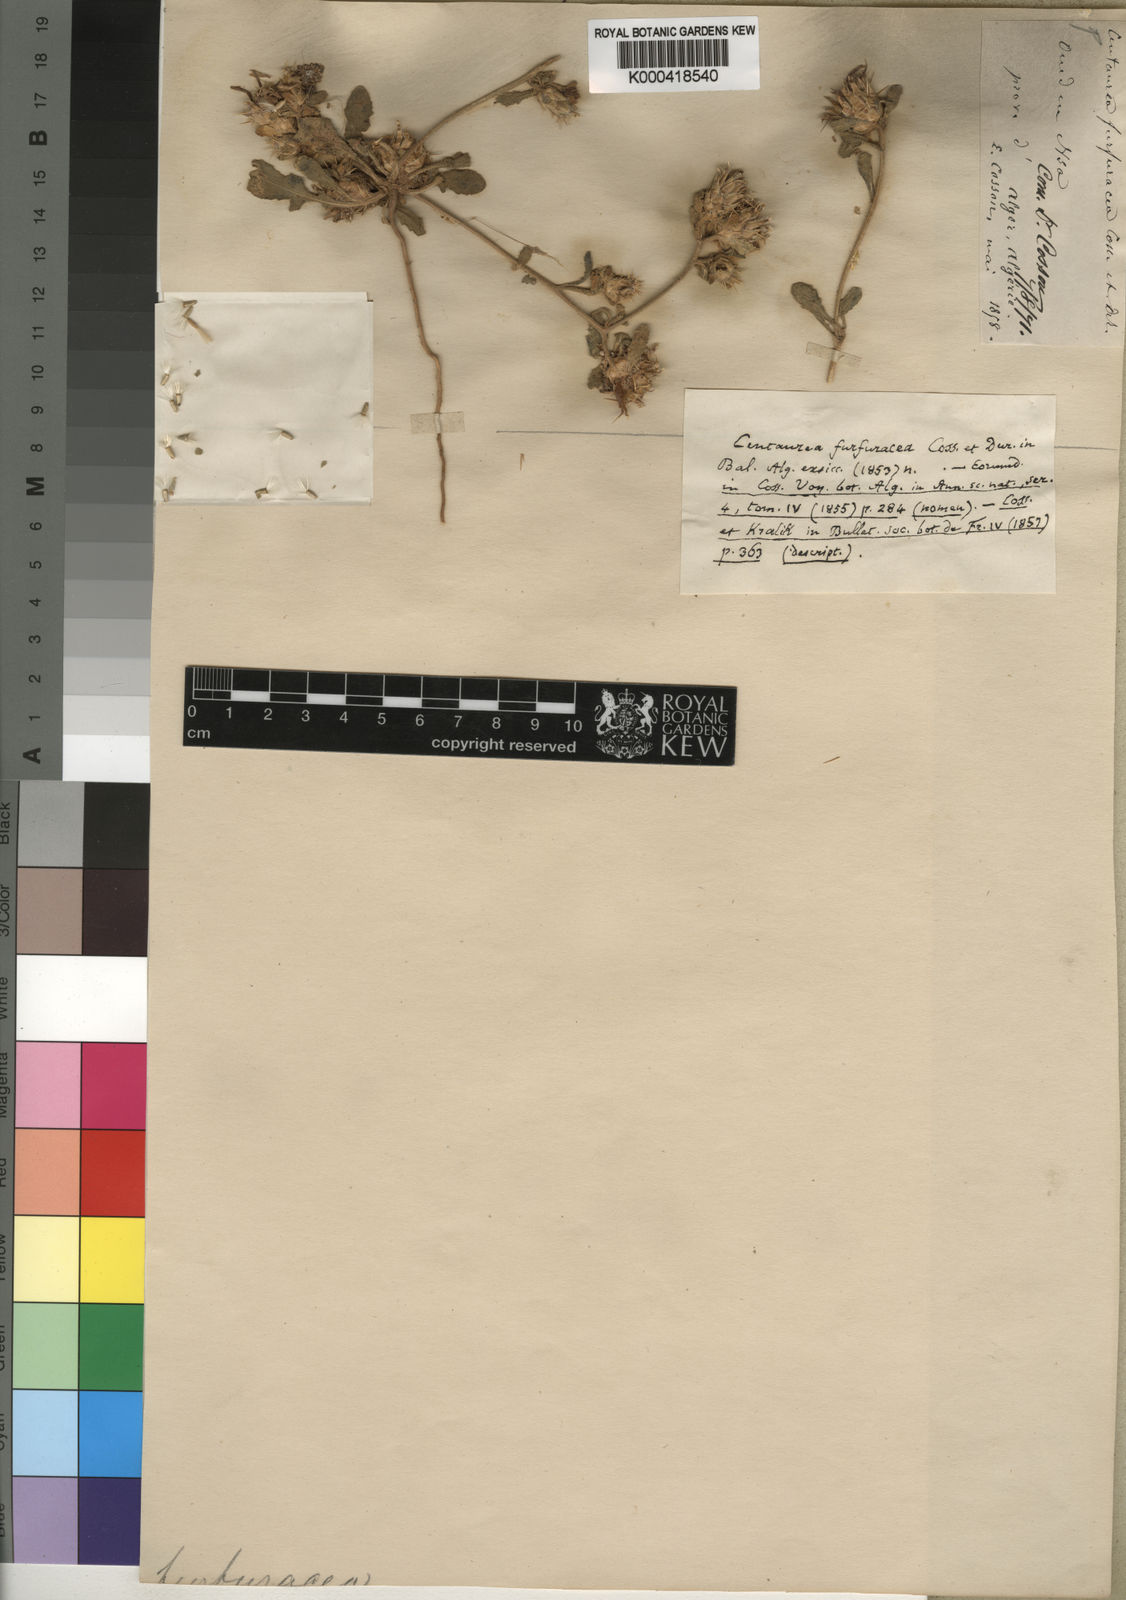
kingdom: Plantae
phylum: Tracheophyta
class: Magnoliopsida
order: Asterales
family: Asteraceae
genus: Centaurea
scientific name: Centaurea furfuracea
